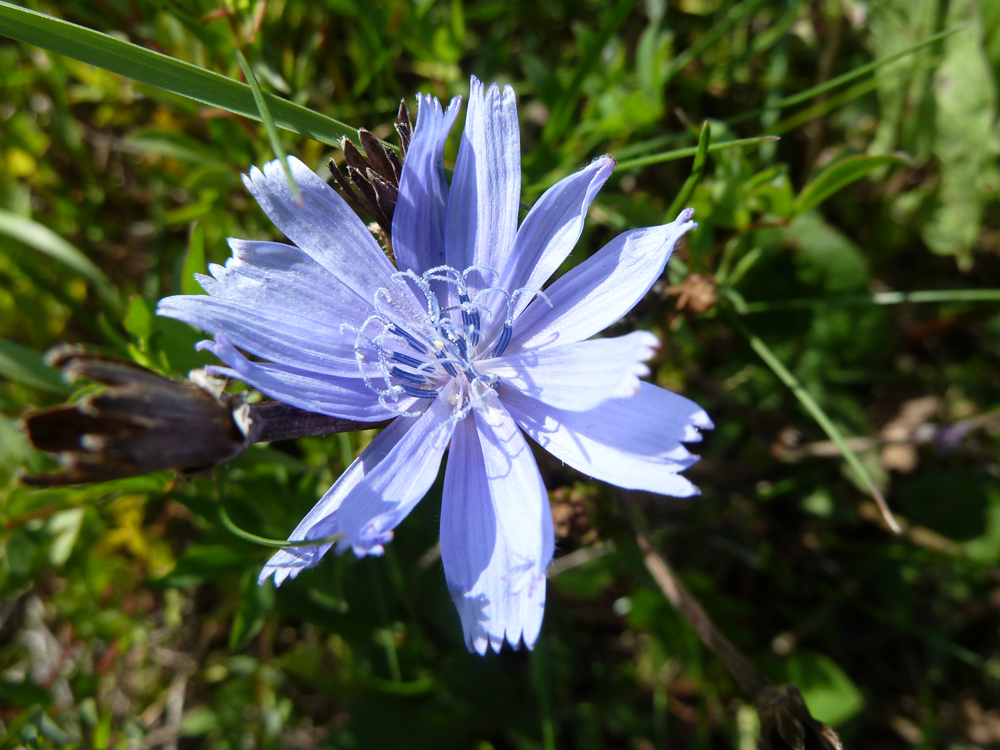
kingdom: Plantae
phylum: Tracheophyta
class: Magnoliopsida
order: Asterales
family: Asteraceae
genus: Cichorium
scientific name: Cichorium intybus
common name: Chicory
